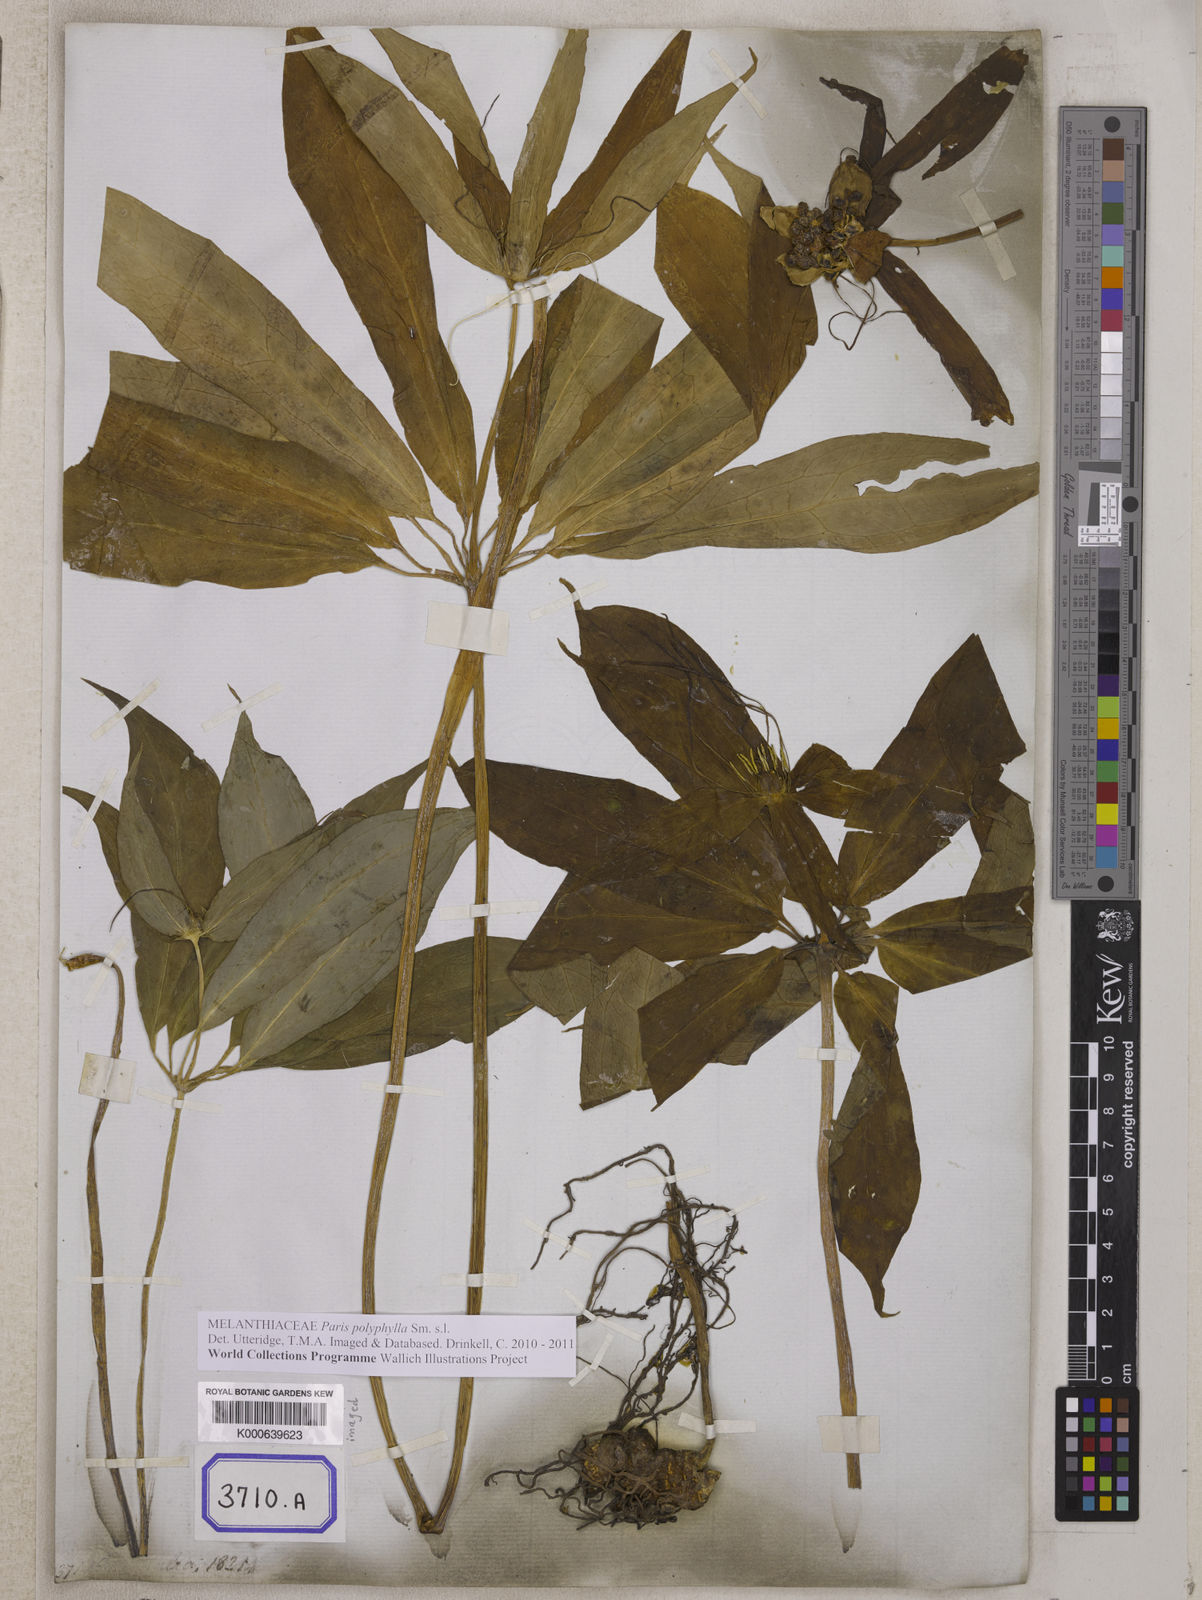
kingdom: Plantae
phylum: Tracheophyta
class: Liliopsida
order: Liliales
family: Melanthiaceae
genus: Paris
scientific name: Paris polyphylla
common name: Love apple
